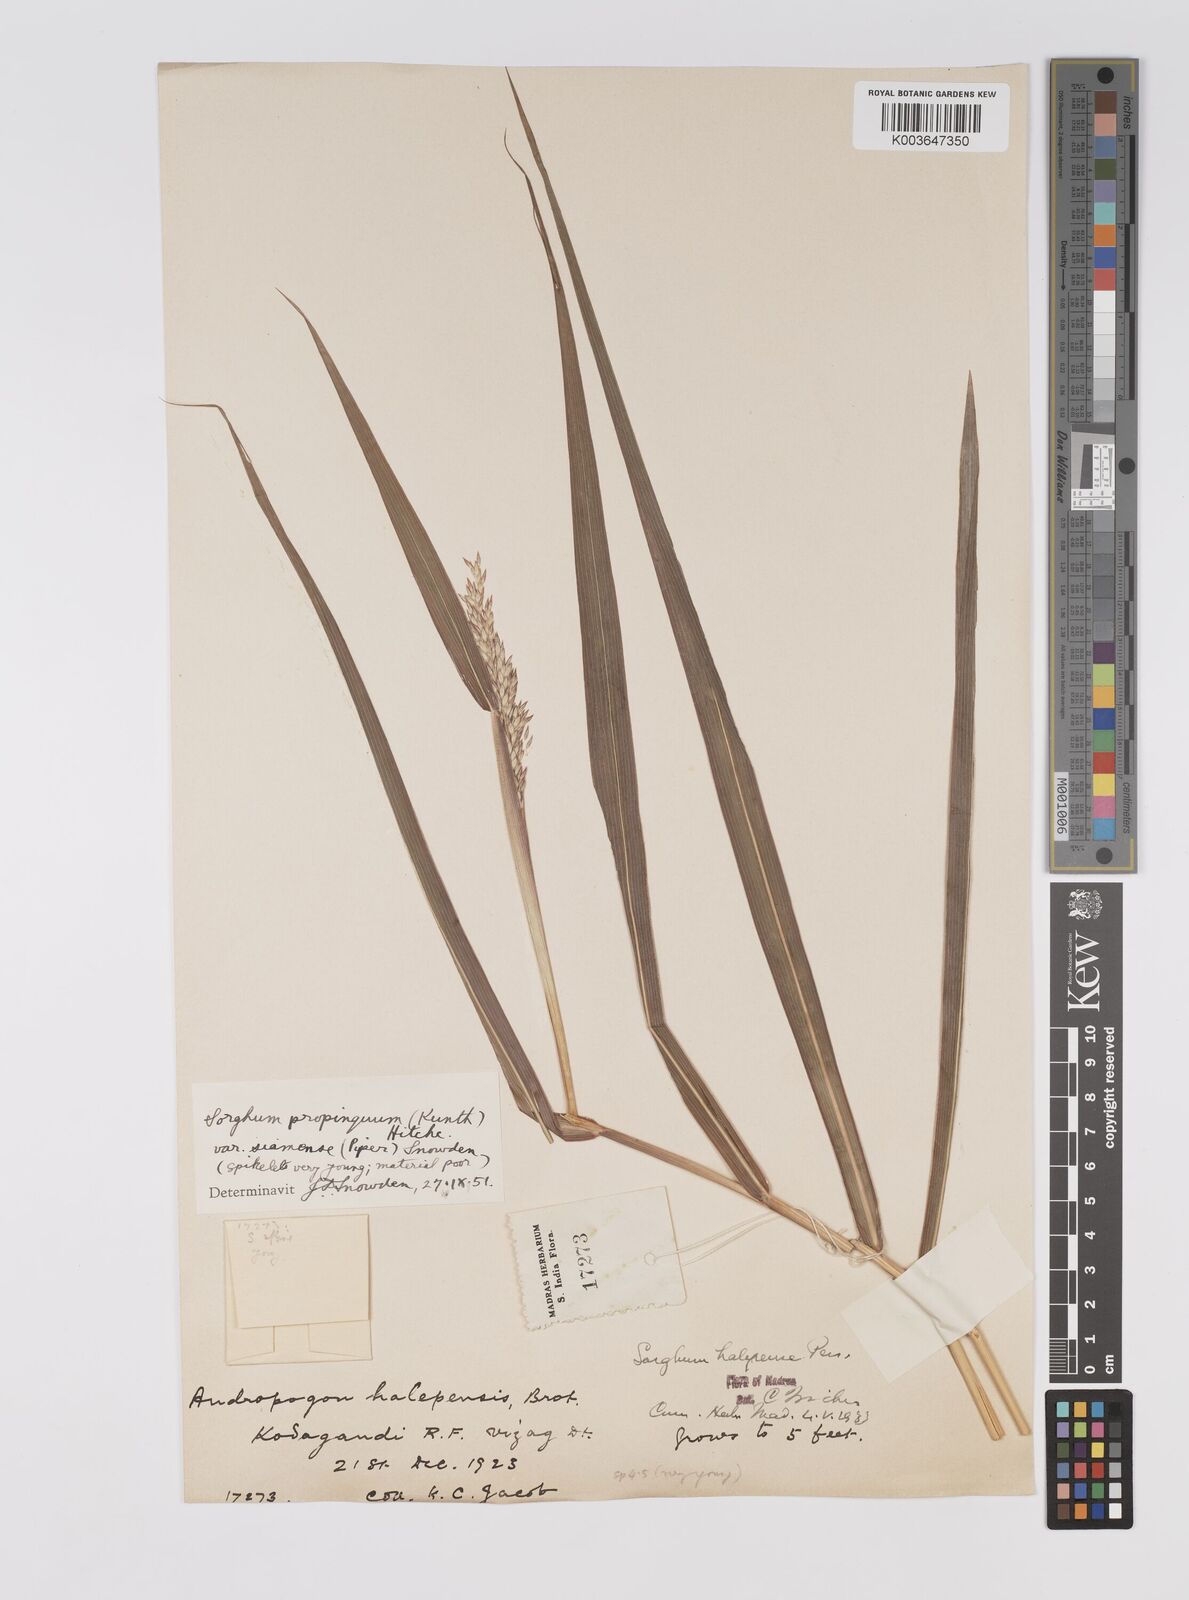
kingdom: Plantae
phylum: Tracheophyta
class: Liliopsida
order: Poales
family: Poaceae
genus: Sorghum
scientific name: Sorghum propinquum
